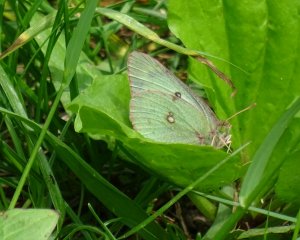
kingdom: Animalia
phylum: Arthropoda
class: Insecta
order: Lepidoptera
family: Pieridae
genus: Colias
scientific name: Colias philodice
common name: Clouded Sulphur
